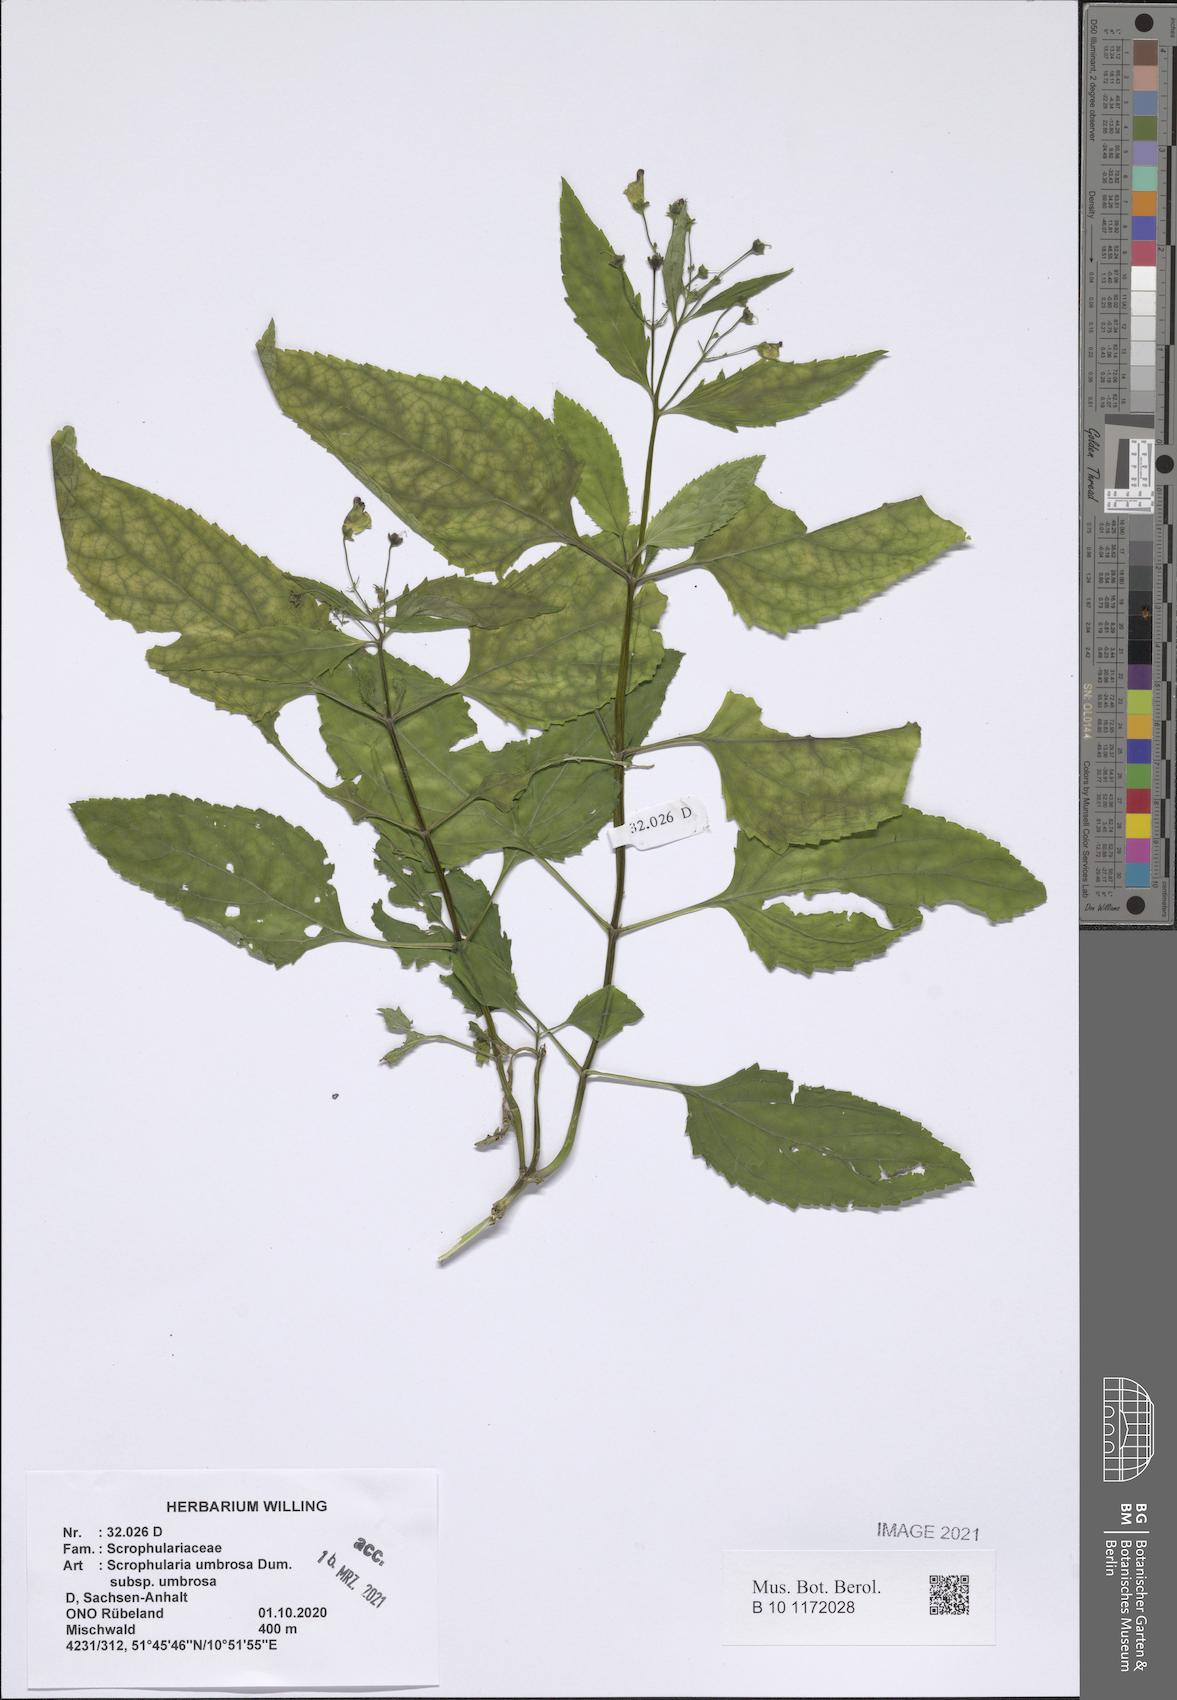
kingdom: Plantae
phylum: Tracheophyta
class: Magnoliopsida
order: Lamiales
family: Scrophulariaceae
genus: Scrophularia
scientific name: Scrophularia umbrosa
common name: Green figwort
